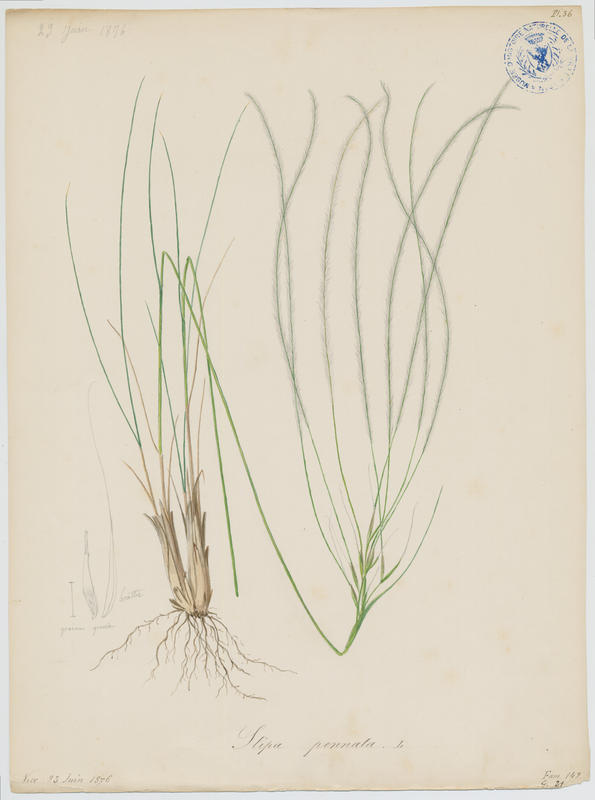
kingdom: Plantae
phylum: Tracheophyta
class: Liliopsida
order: Poales
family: Poaceae
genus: Stipa
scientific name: Stipa pennata
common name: European feather grass
